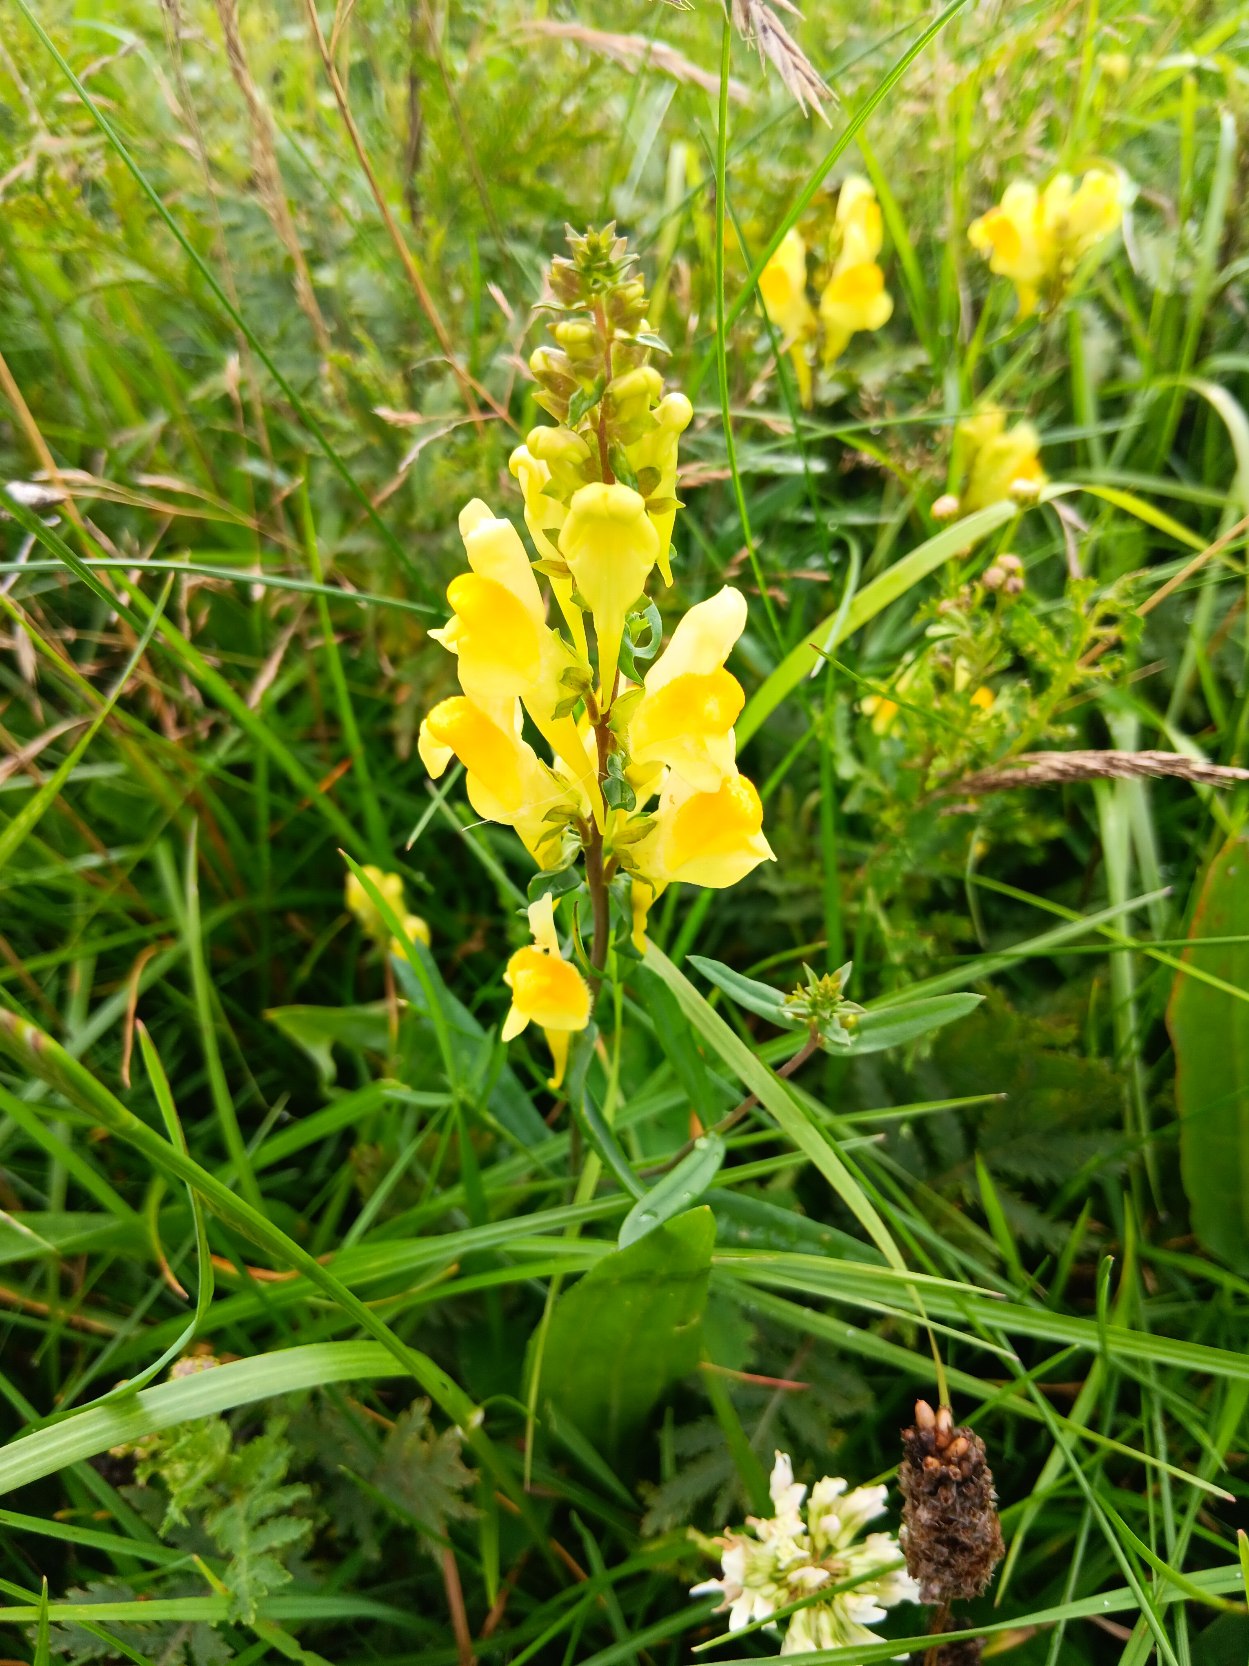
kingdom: Plantae
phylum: Tracheophyta
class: Magnoliopsida
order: Lamiales
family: Plantaginaceae
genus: Linaria
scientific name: Linaria
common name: Torskemund (Linaria-slægten)
